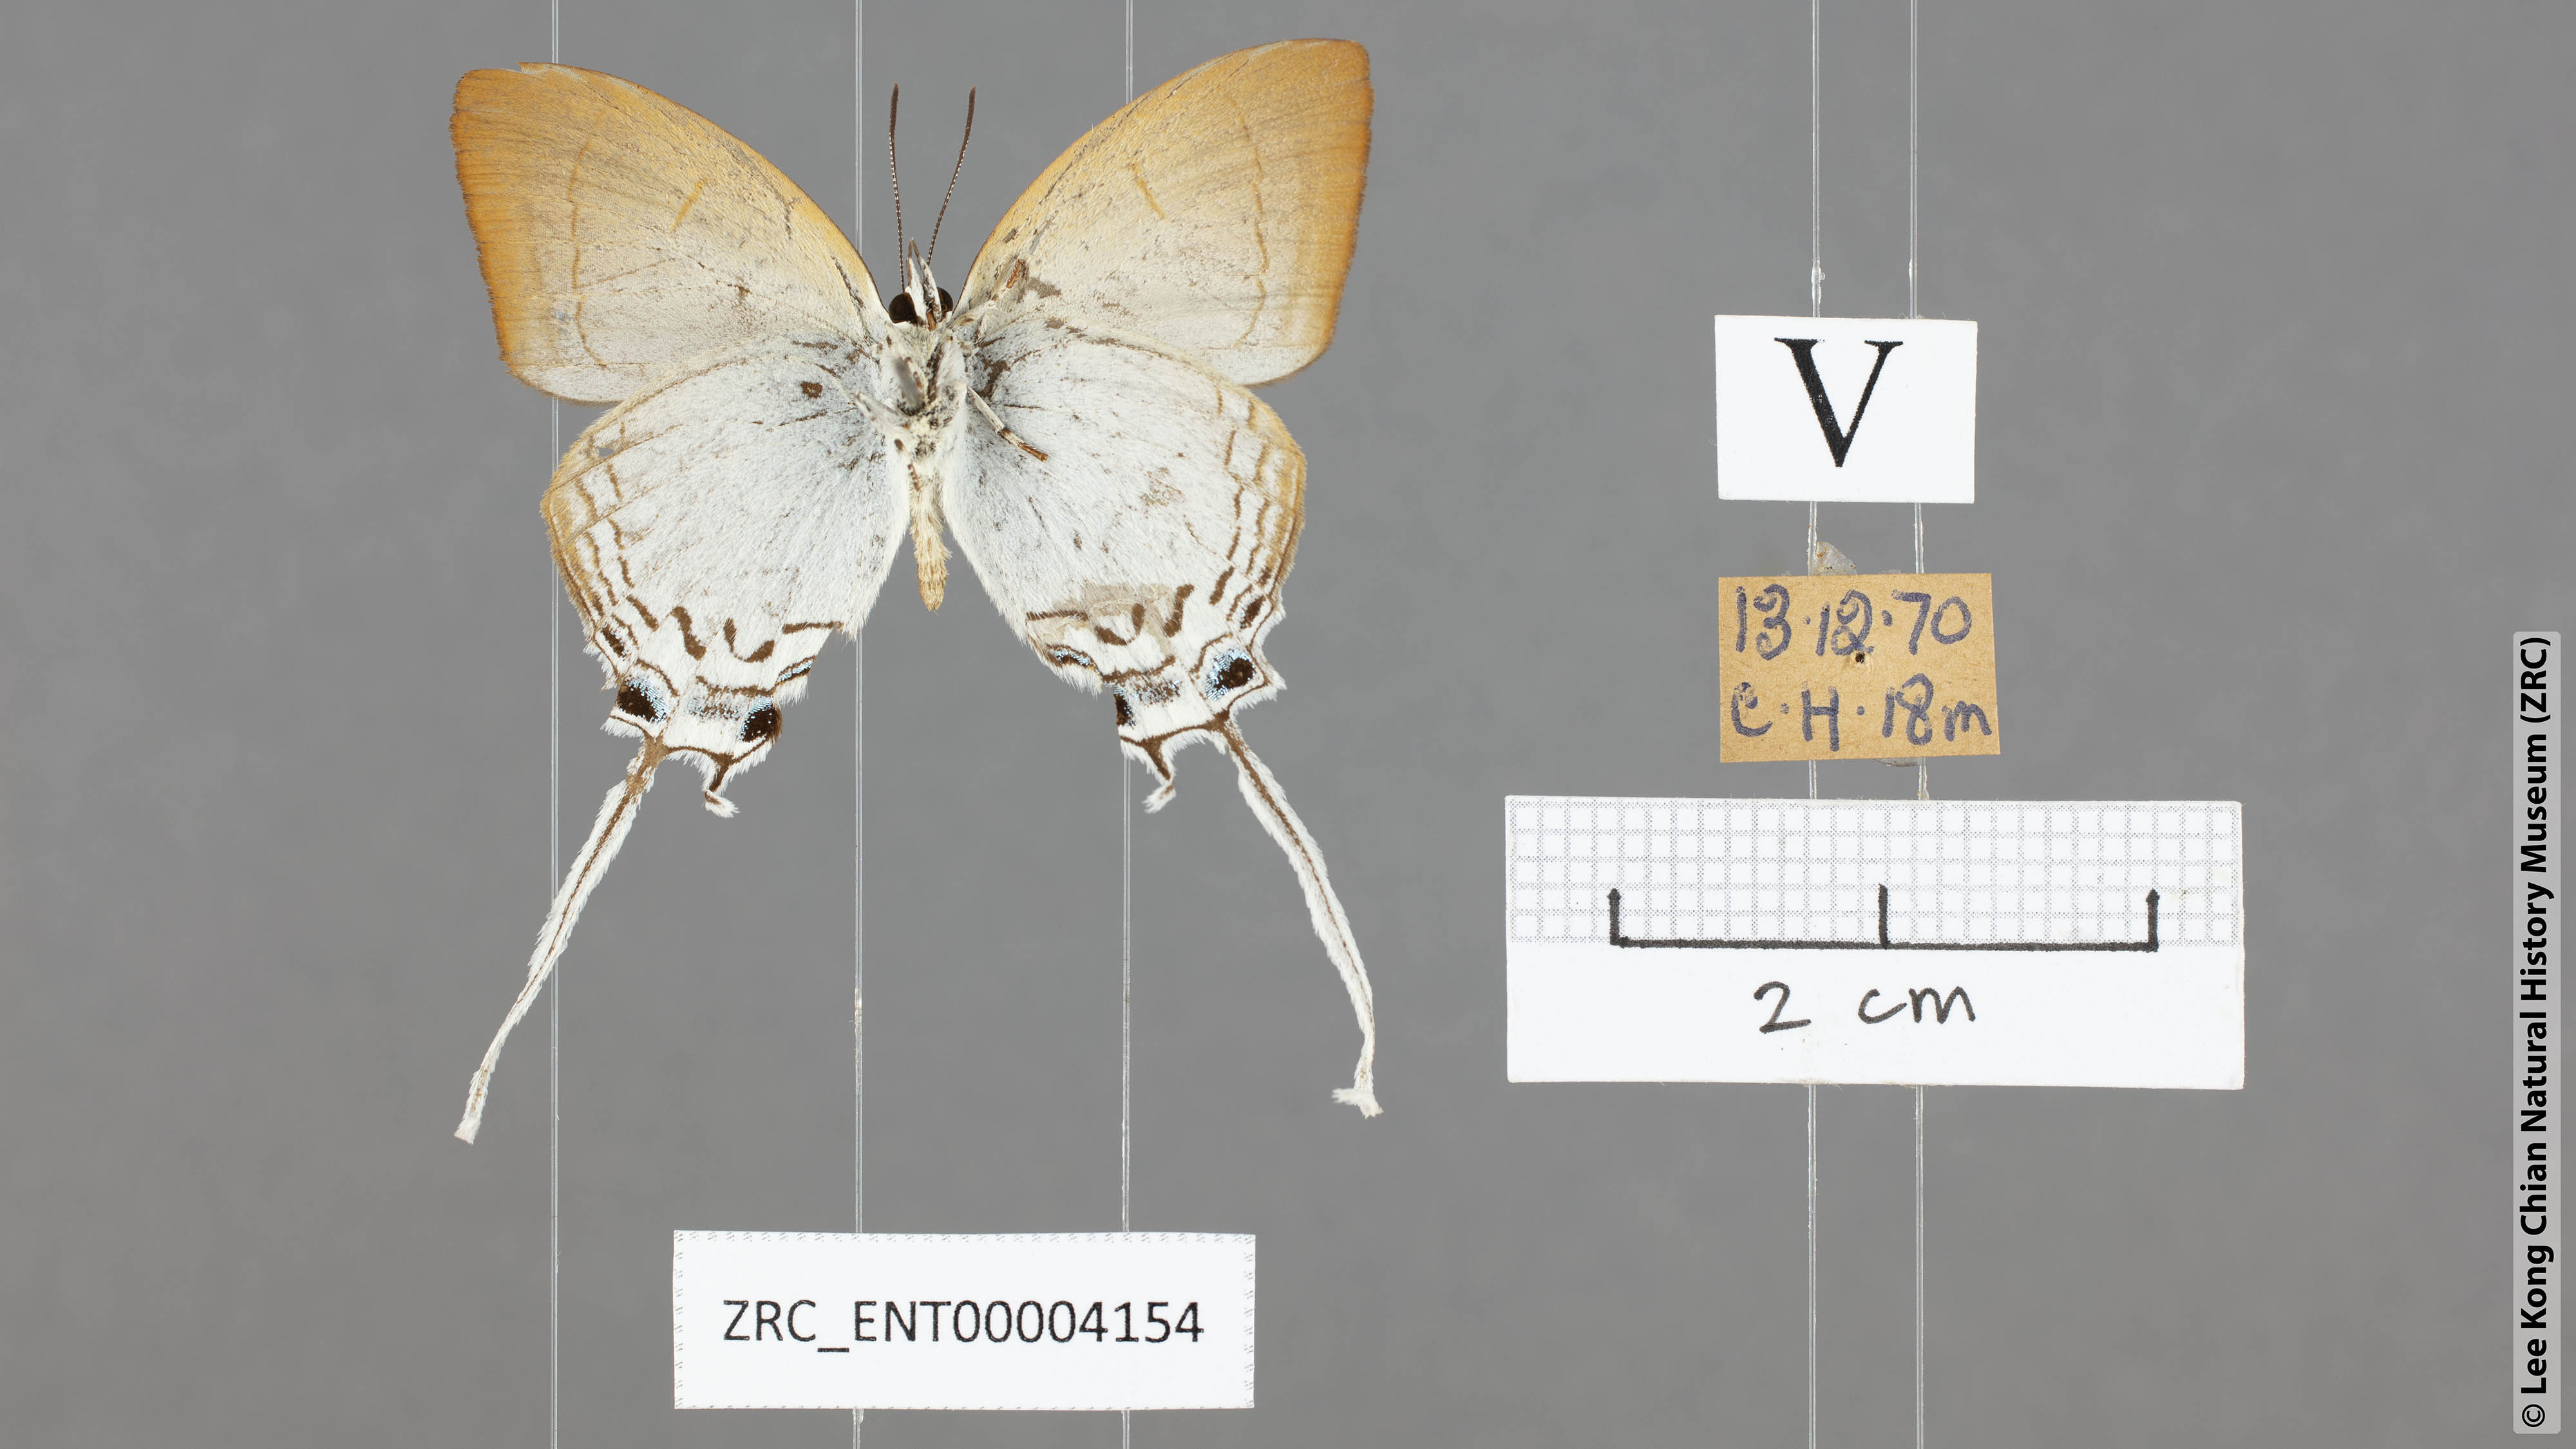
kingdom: Animalia
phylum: Arthropoda
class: Insecta
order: Lepidoptera
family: Lycaenidae
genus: Cheritra
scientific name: Cheritra freja
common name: Common imperial
